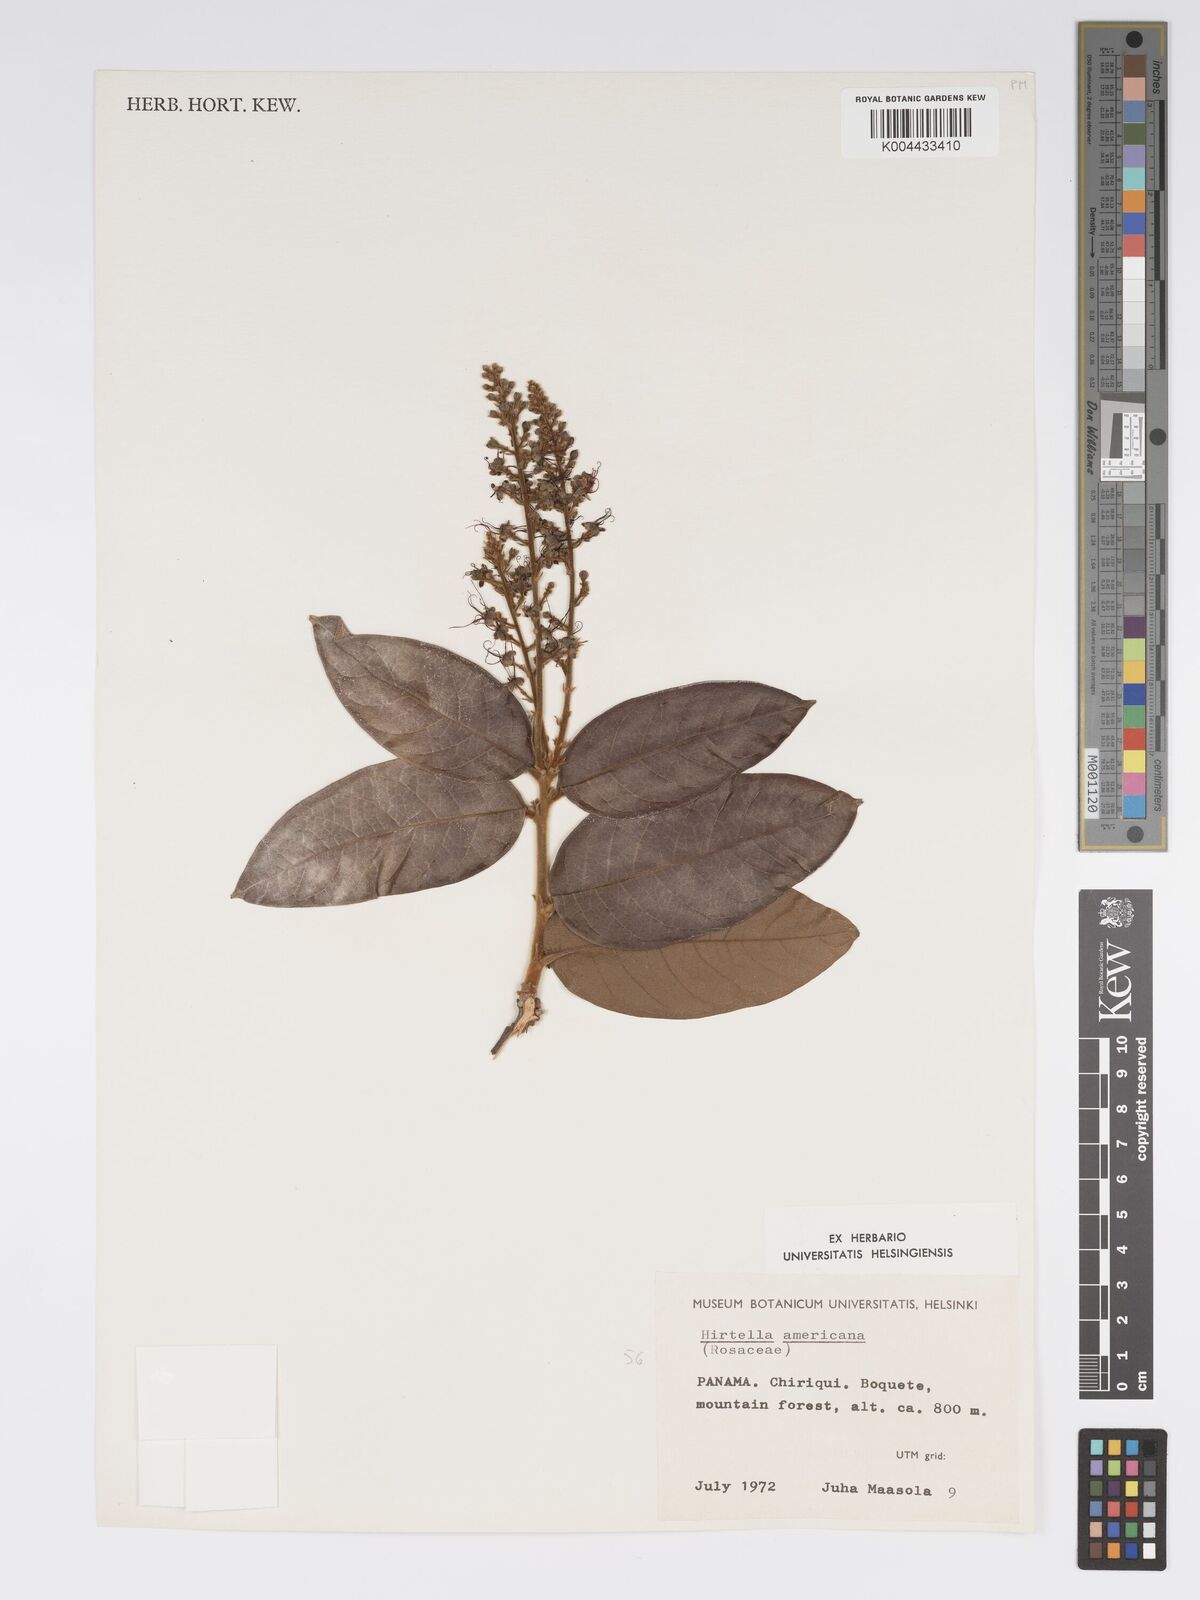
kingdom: Plantae
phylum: Tracheophyta
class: Magnoliopsida
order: Malpighiales
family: Chrysobalanaceae
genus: Hirtella
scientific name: Hirtella racemosa
